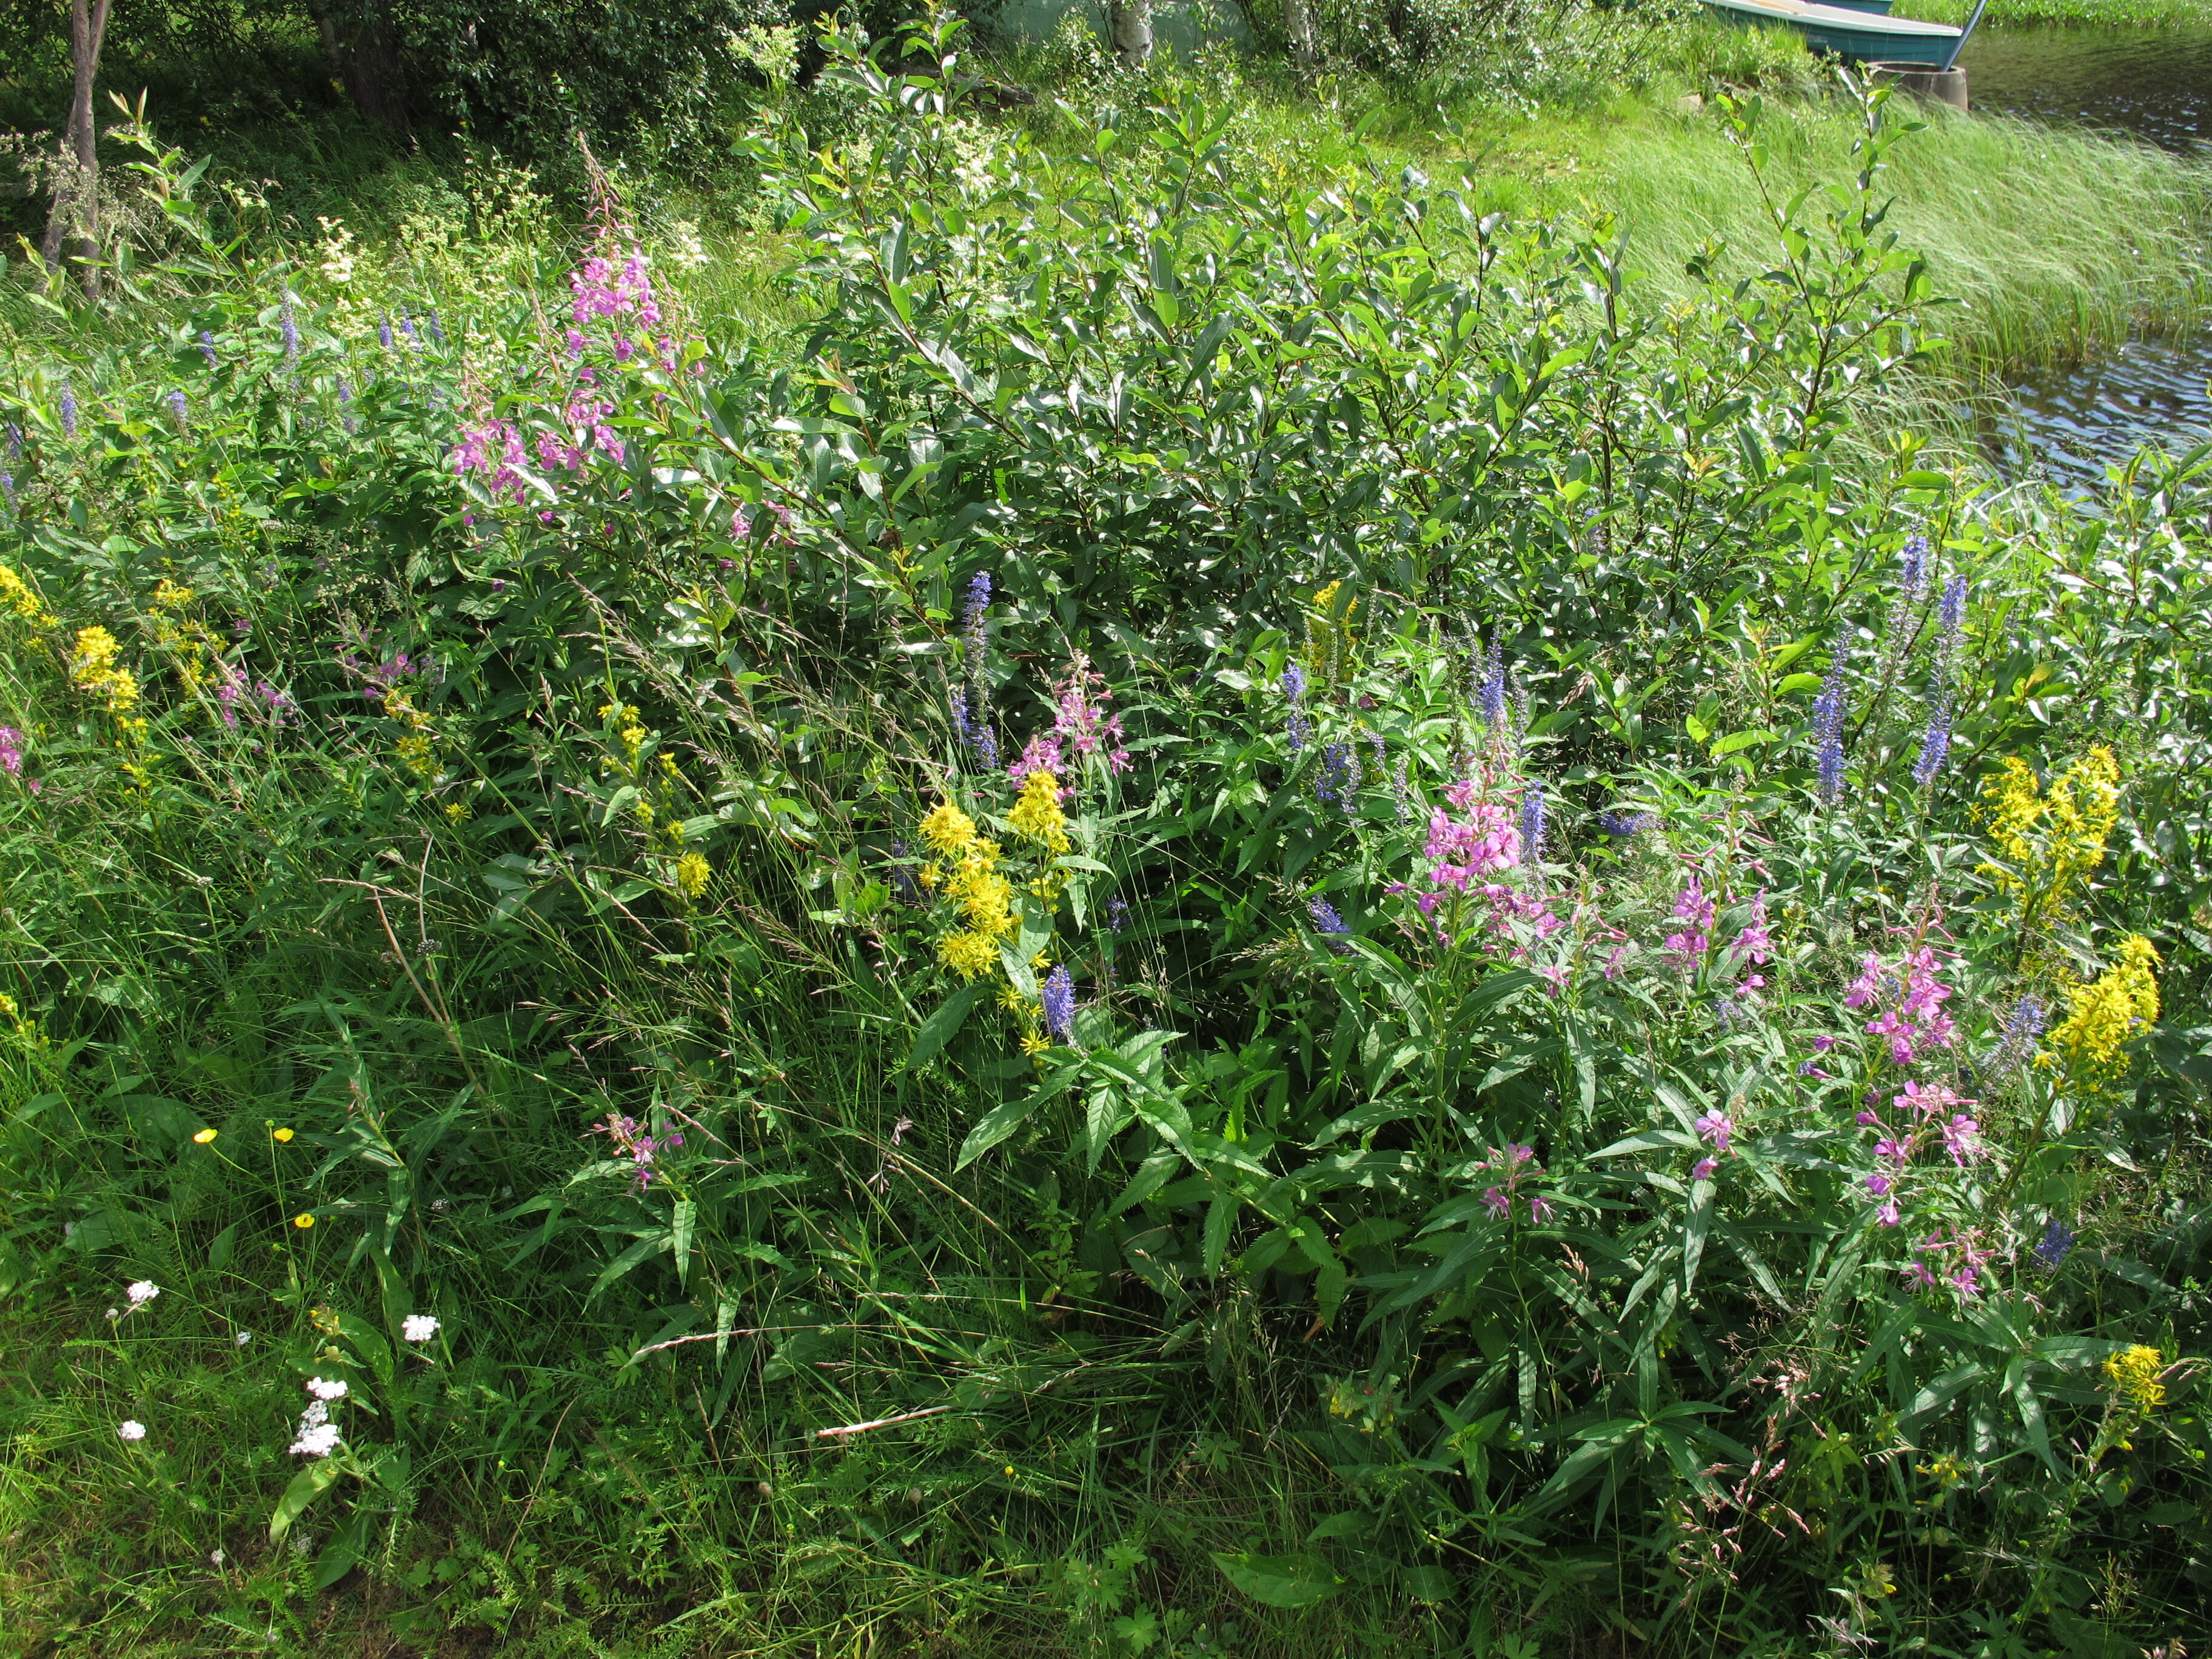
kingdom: Plantae
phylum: Tracheophyta
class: Magnoliopsida
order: Asterales
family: Asteraceae
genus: Solidago
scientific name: Solidago virgaurea
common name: Goldenrod
